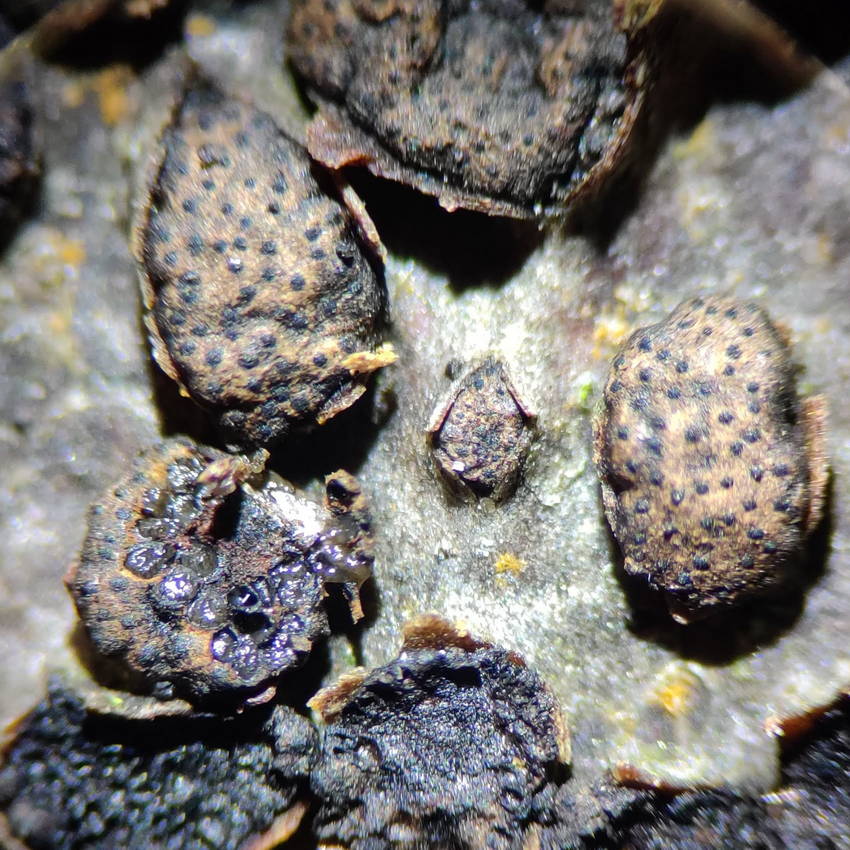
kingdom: Fungi
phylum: Ascomycota
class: Sordariomycetes
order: Xylariales
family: Melogrammataceae
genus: Melogramma
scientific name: Melogramma campylosporum
